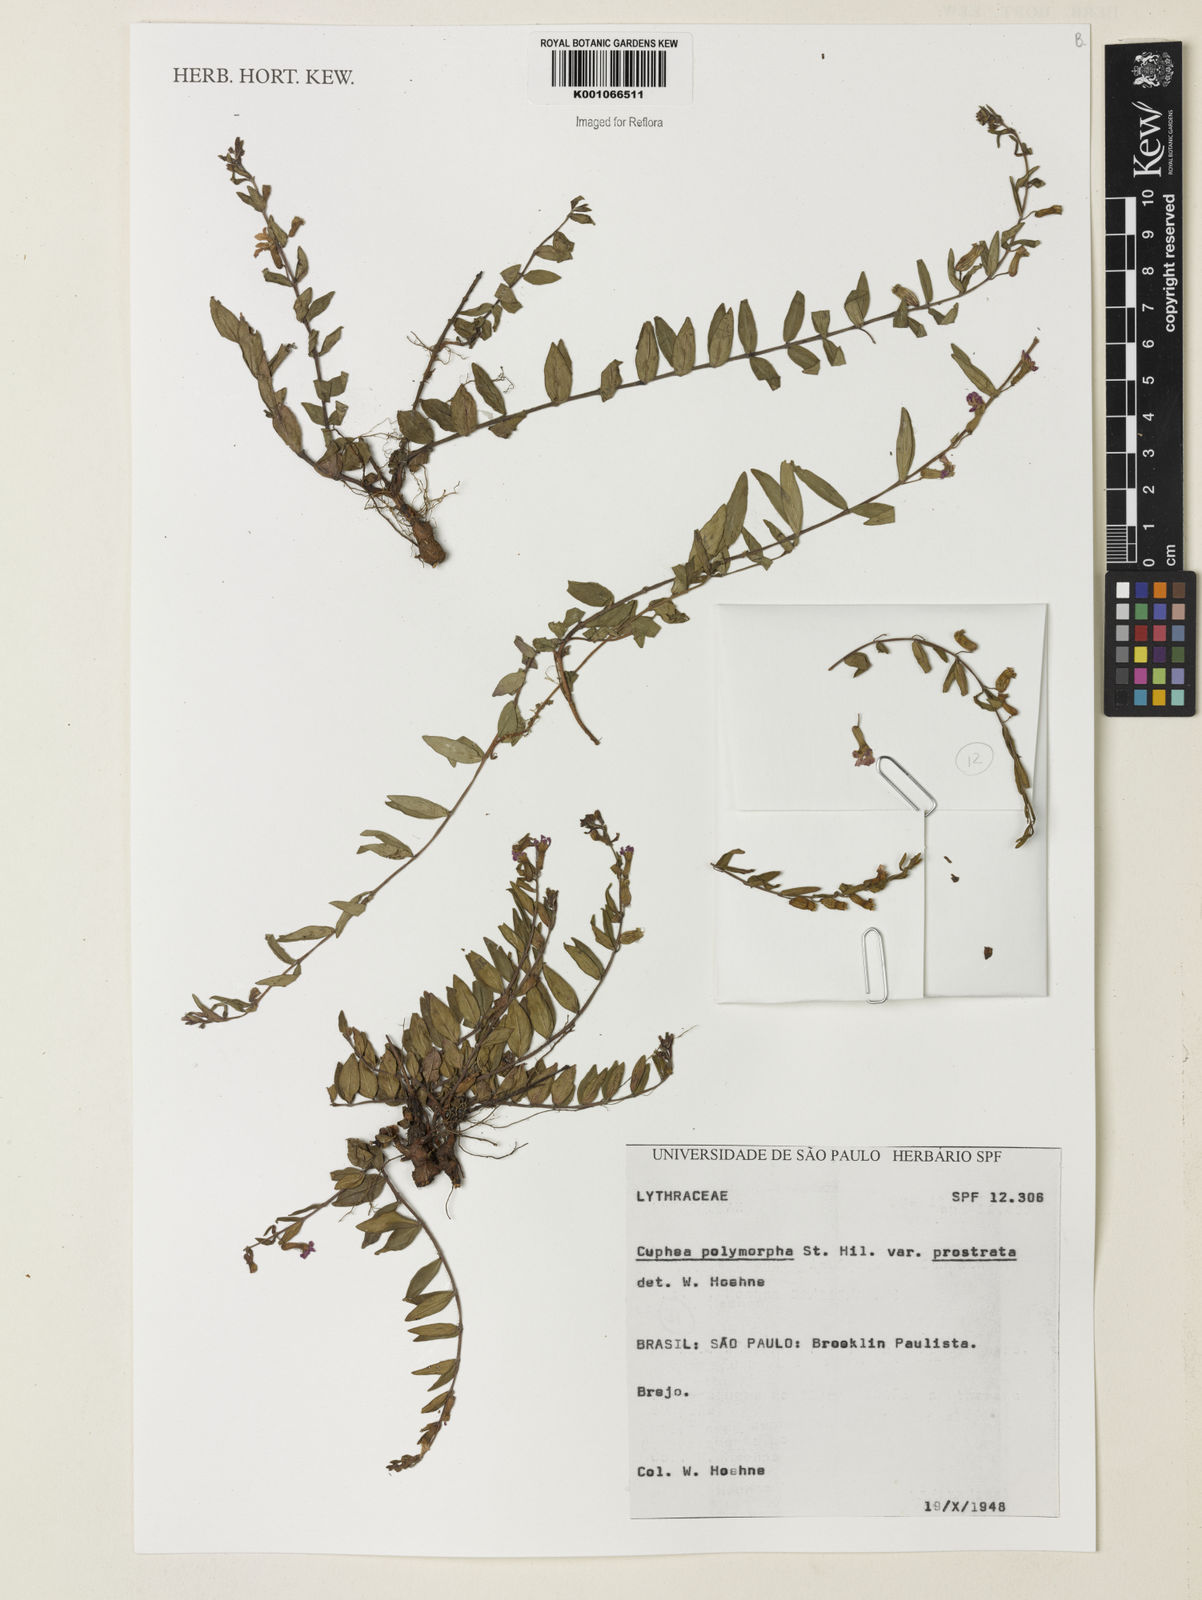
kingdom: Plantae
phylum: Tracheophyta
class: Magnoliopsida
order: Myrtales
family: Lythraceae
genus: Cuphea
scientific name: Cuphea polymorpha
